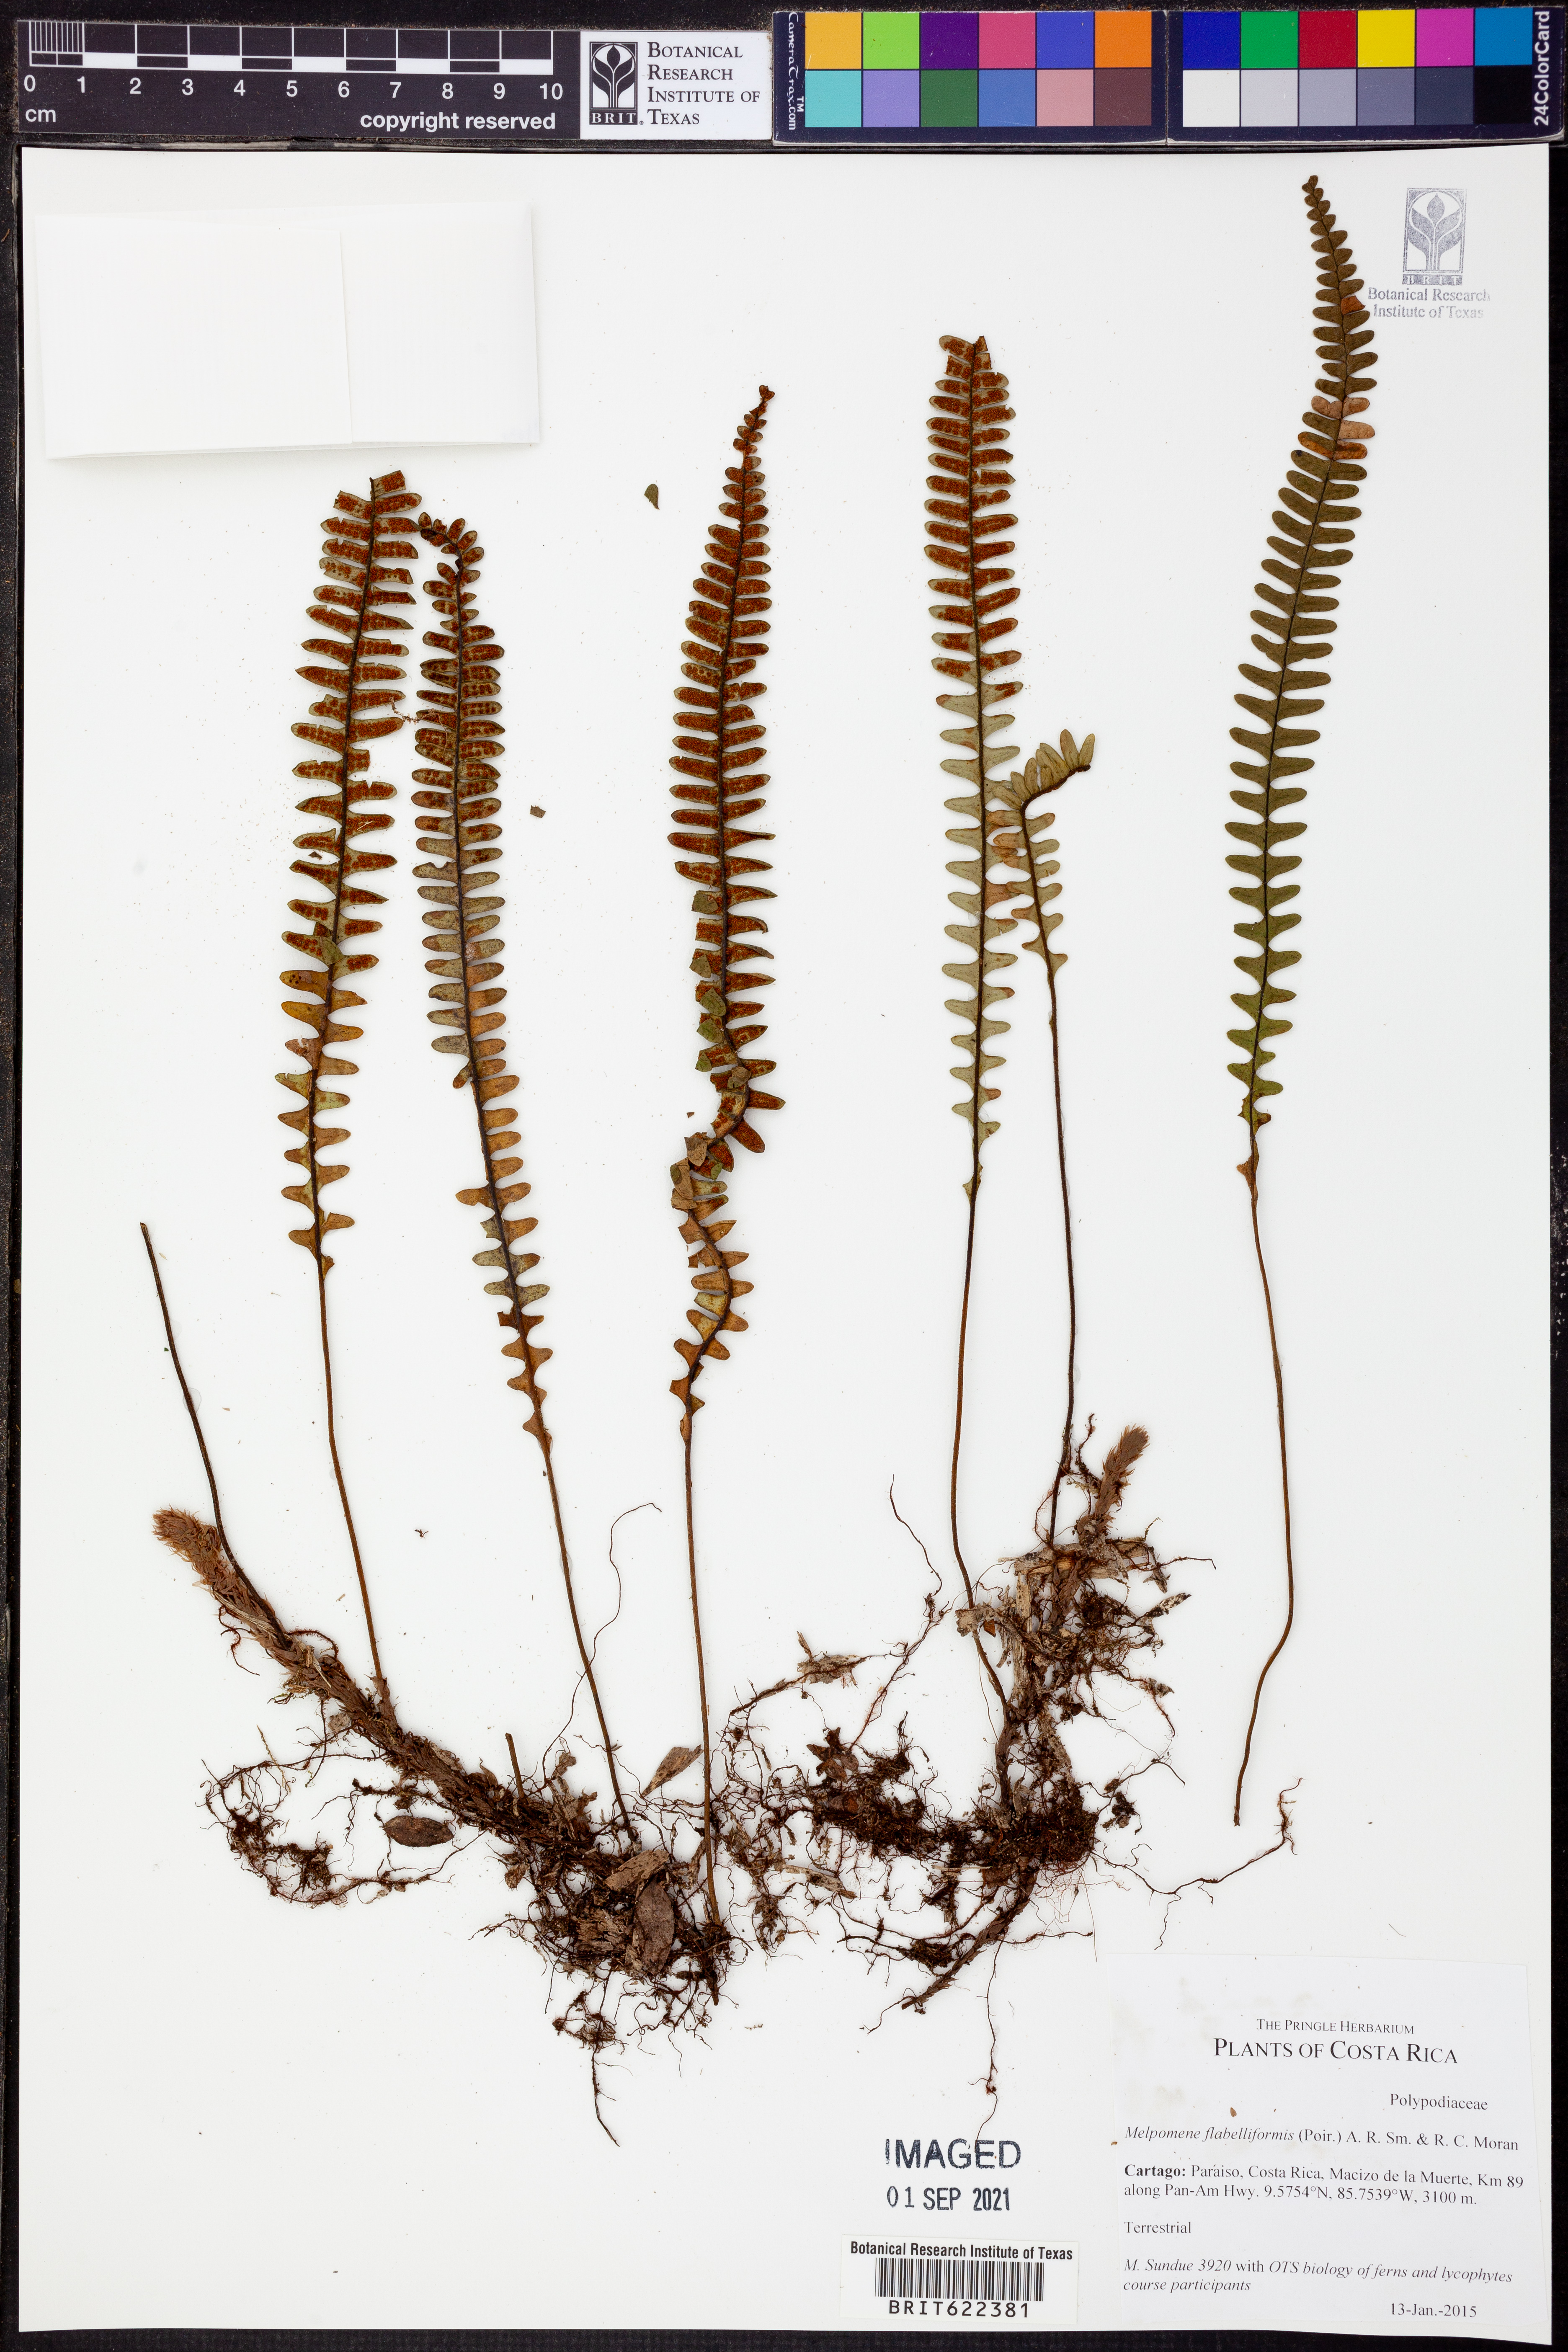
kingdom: Plantae
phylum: Tracheophyta
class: Polypodiopsida
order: Polypodiales
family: Polypodiaceae
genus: Melpomene
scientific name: Melpomene flabelliformis
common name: Fanleaf dwarf polypody
